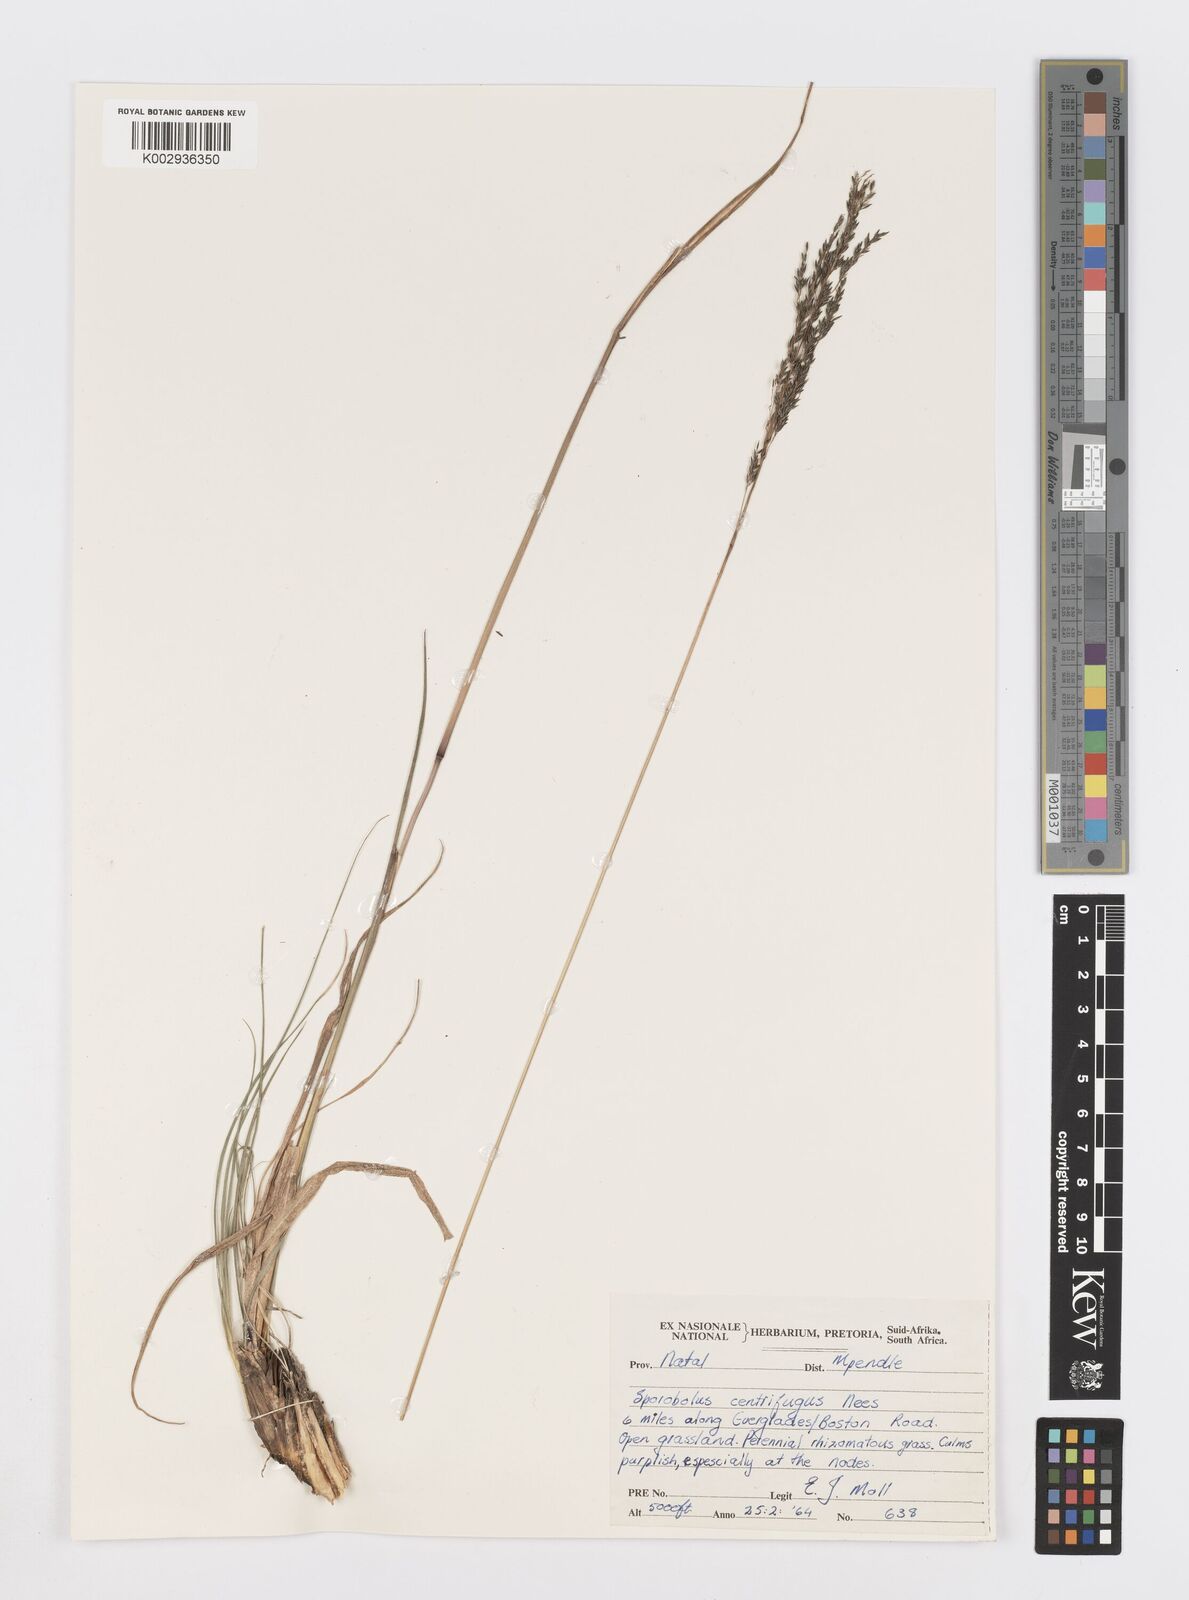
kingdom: Plantae
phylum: Tracheophyta
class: Liliopsida
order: Poales
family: Poaceae
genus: Sporobolus
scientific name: Sporobolus centrifugus
